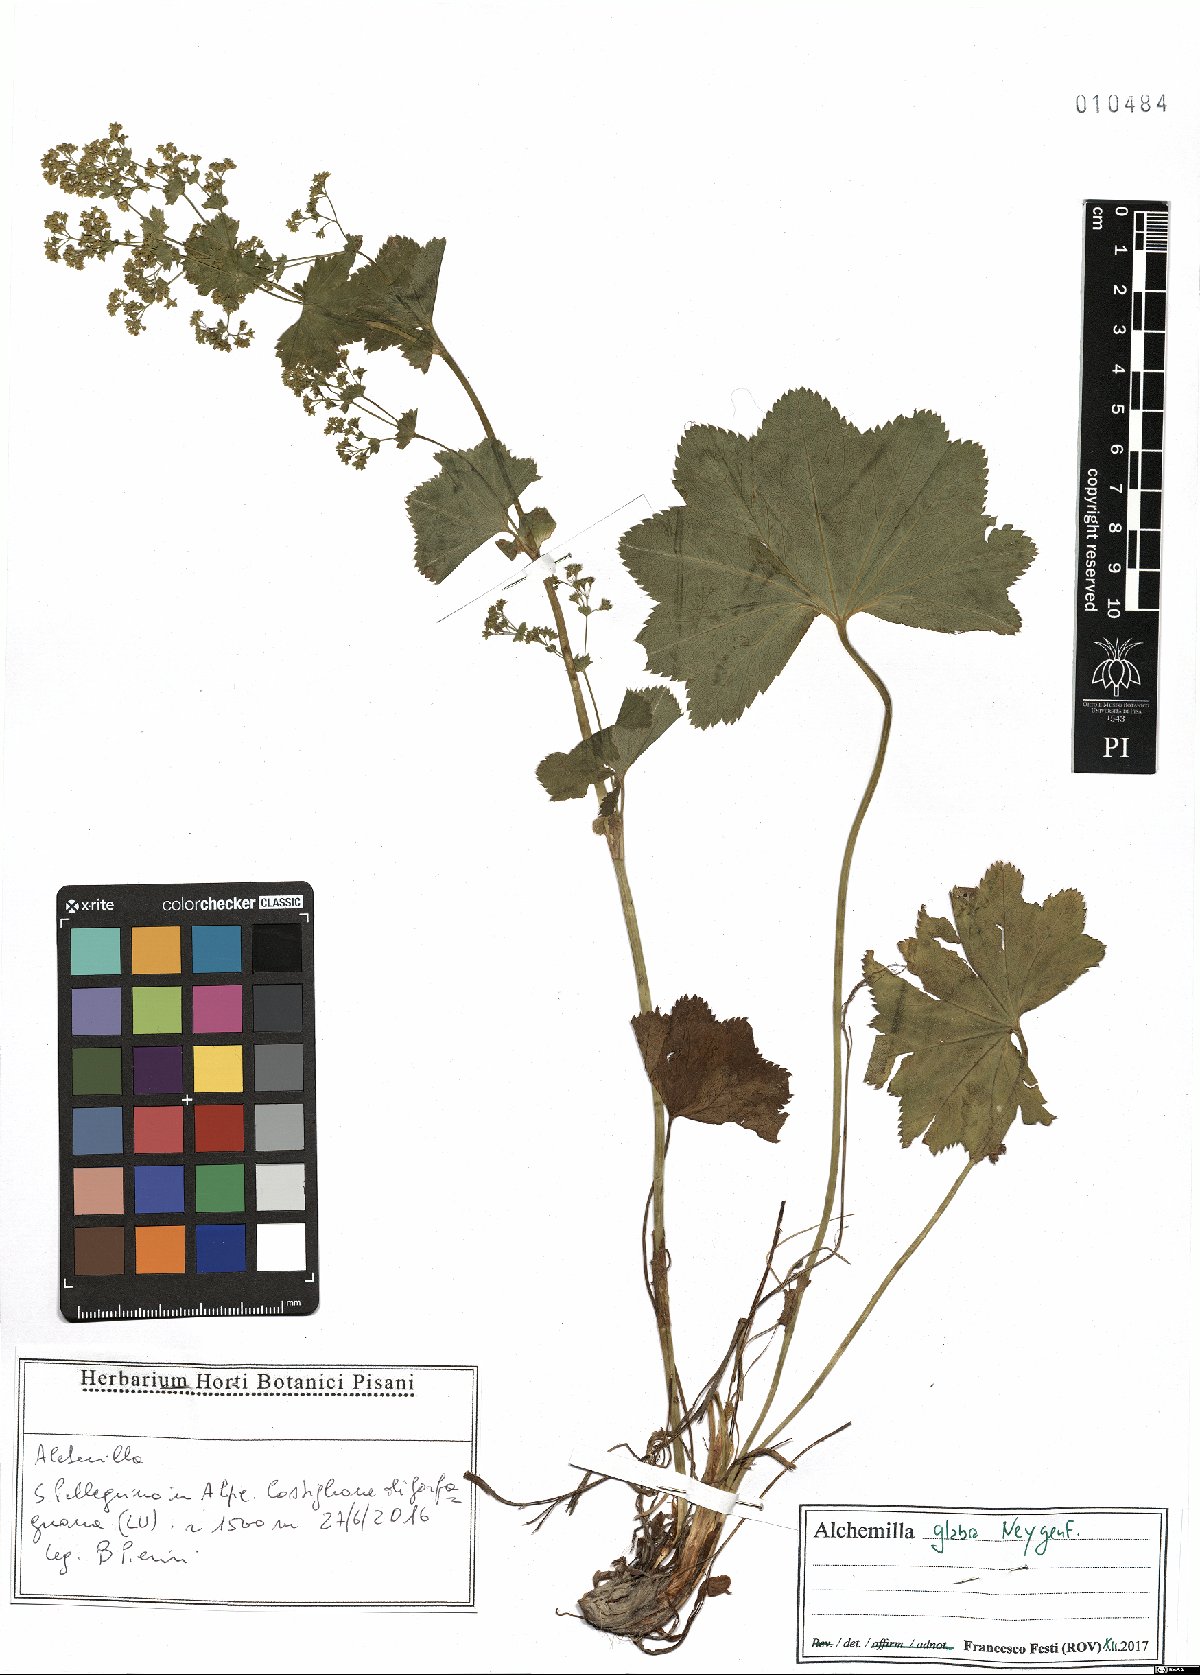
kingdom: Plantae
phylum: Tracheophyta
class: Magnoliopsida
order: Rosales
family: Rosaceae
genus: Alchemilla
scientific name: Alchemilla glabra
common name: Smooth lady's-mantle
